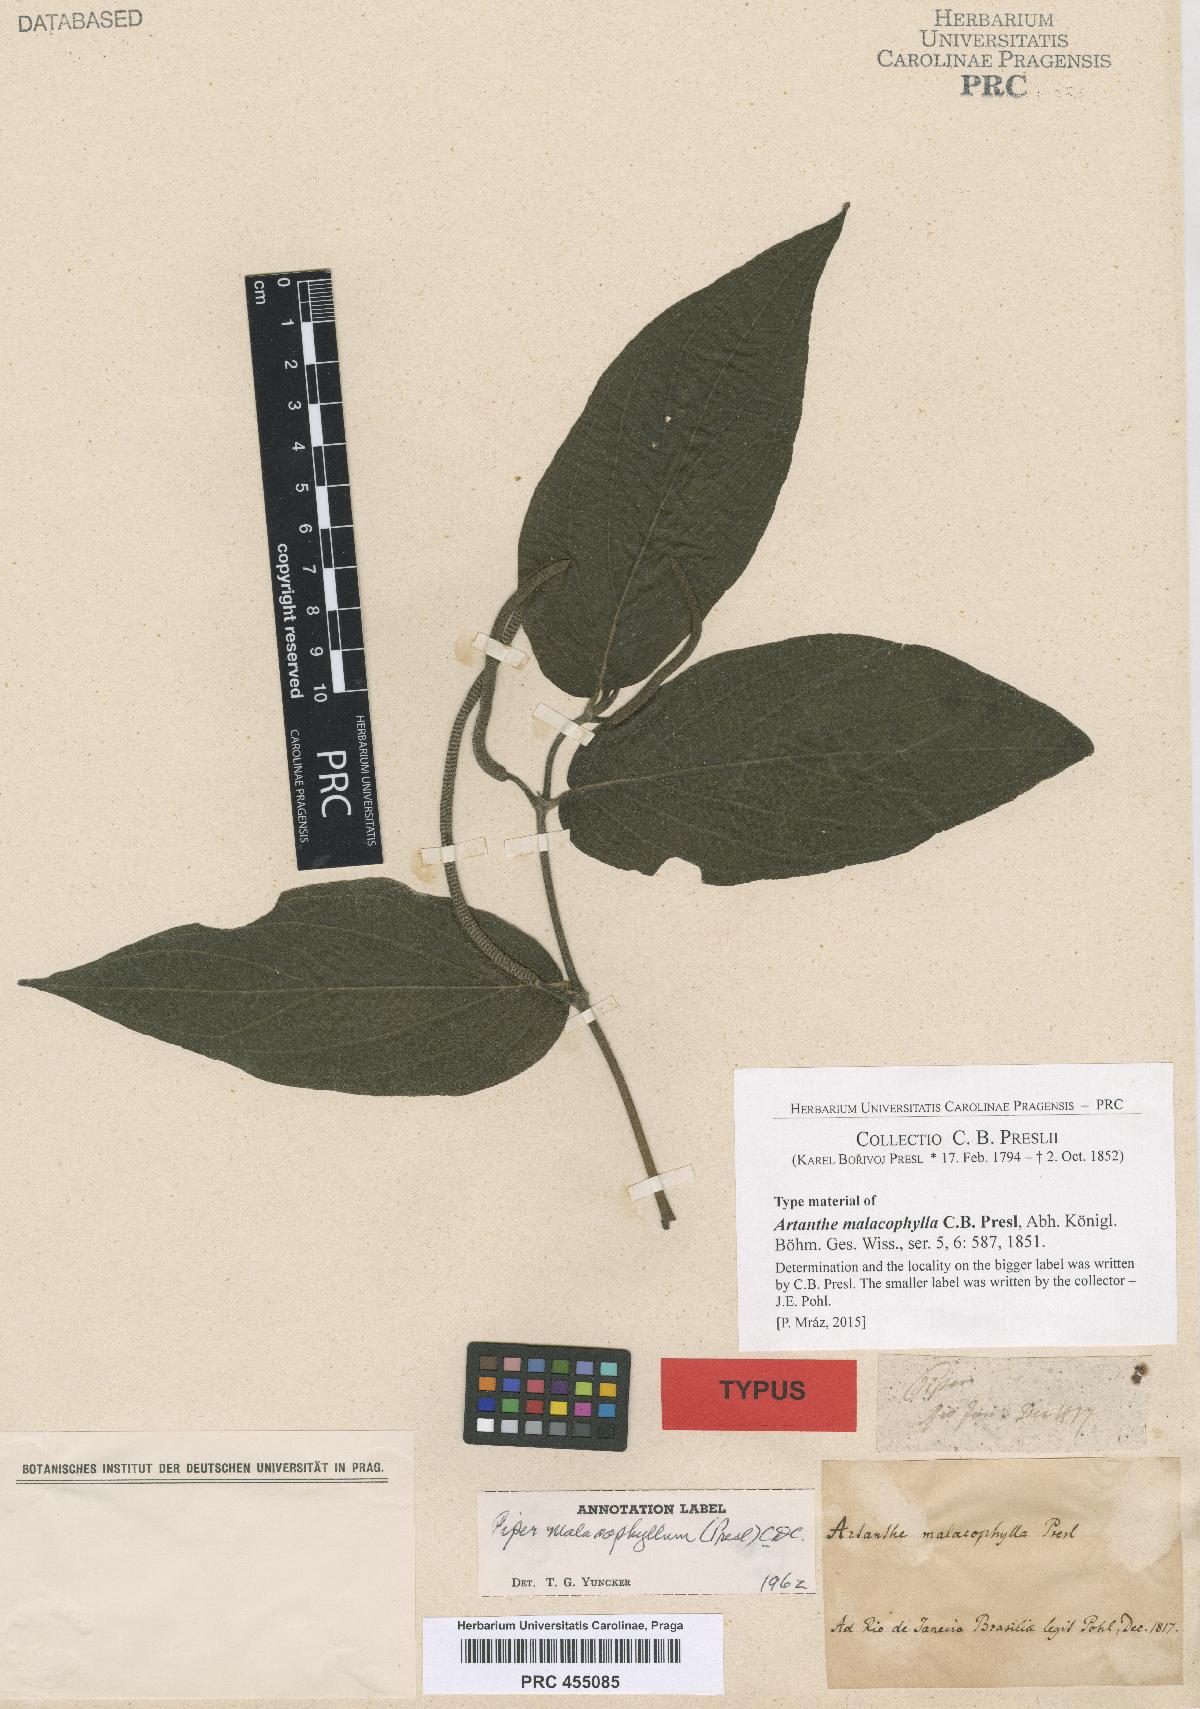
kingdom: Plantae
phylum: Tracheophyta
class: Magnoliopsida
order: Piperales
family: Piperaceae
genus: Piper
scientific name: Piper malacophyllum
